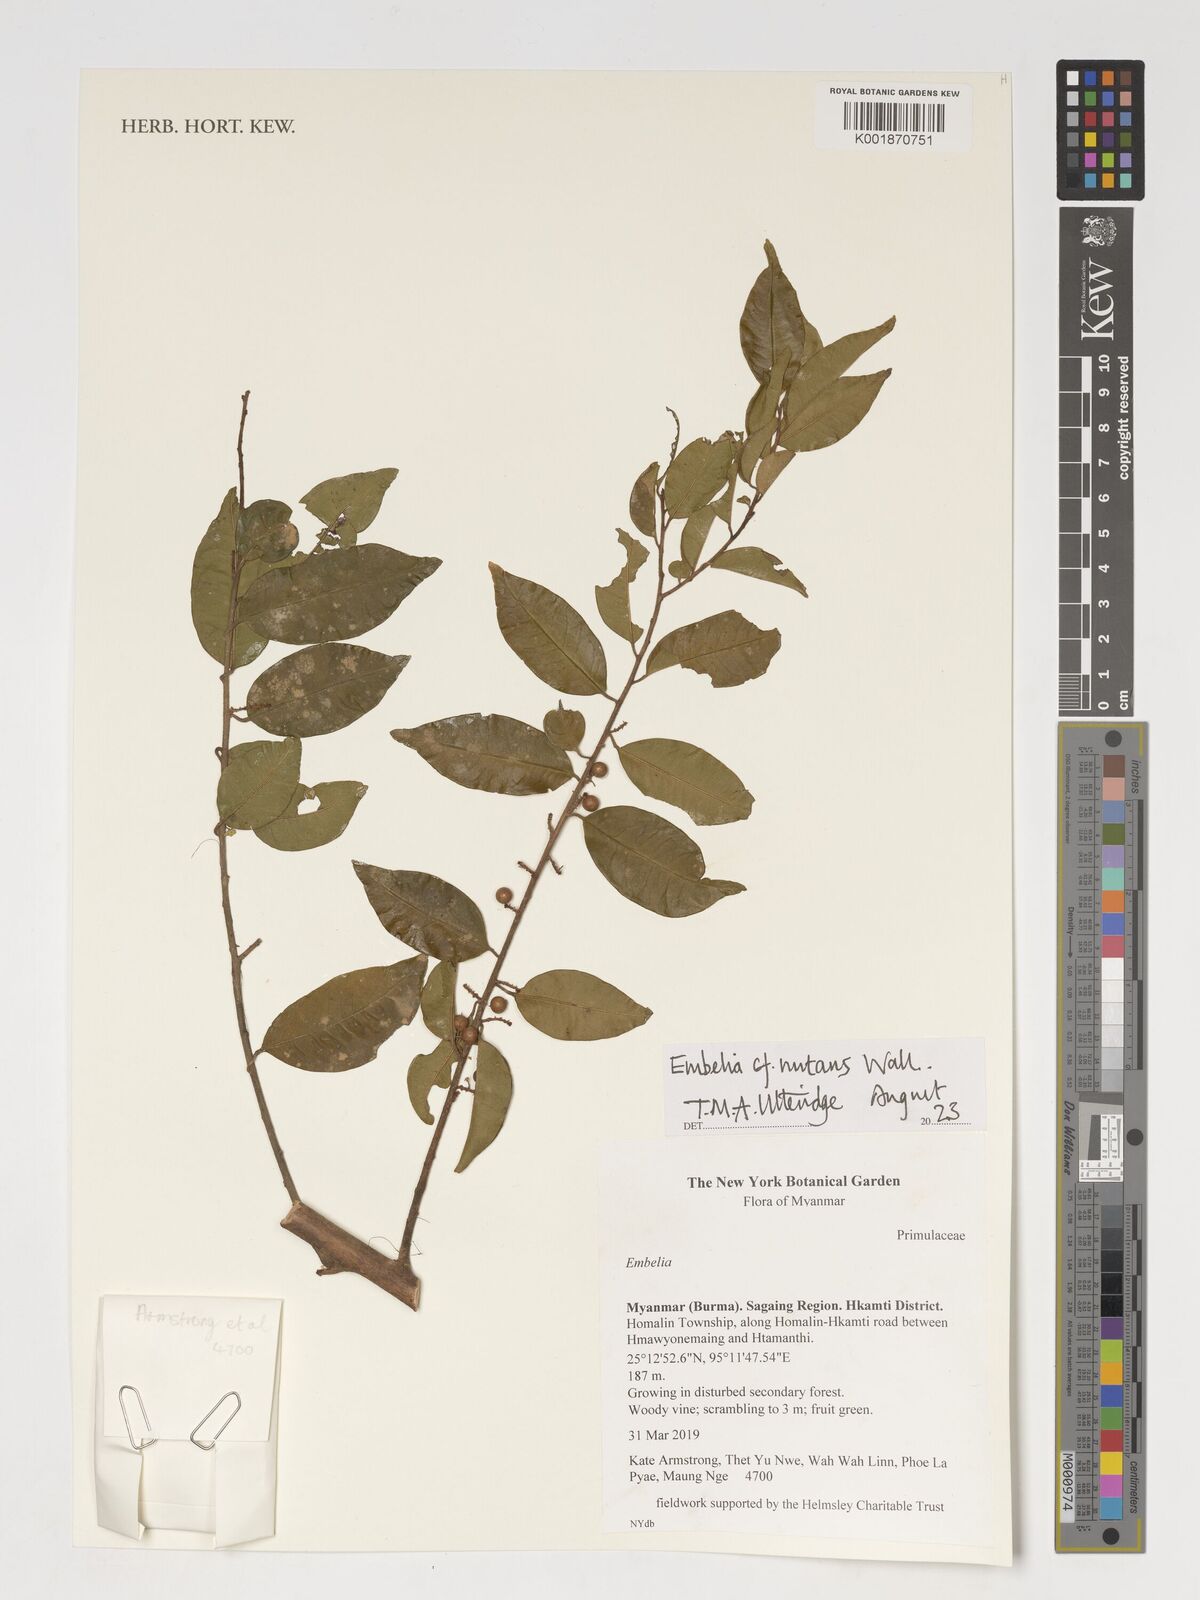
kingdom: Plantae
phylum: Tracheophyta
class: Magnoliopsida
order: Ericales
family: Primulaceae
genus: Embelia
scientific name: Embelia nutans
